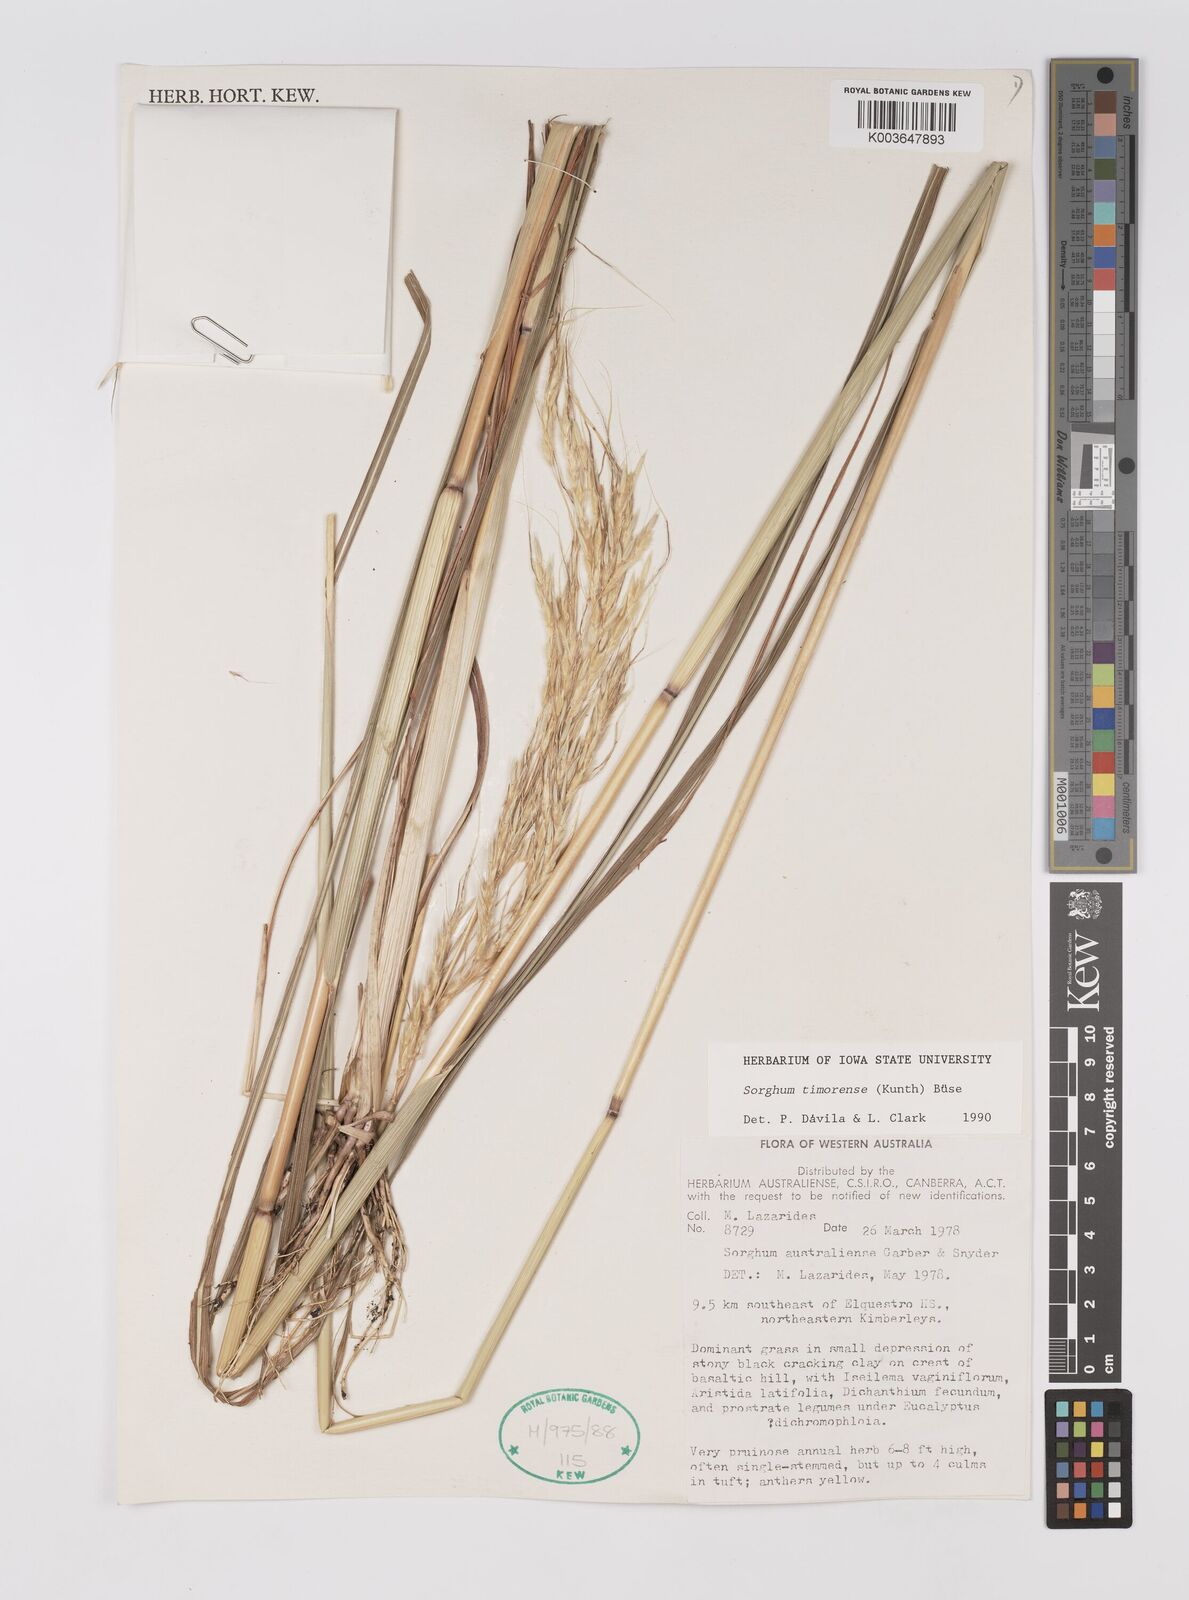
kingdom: Plantae
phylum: Tracheophyta
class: Liliopsida
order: Poales
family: Poaceae
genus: Sarga
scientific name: Sarga timorensis
